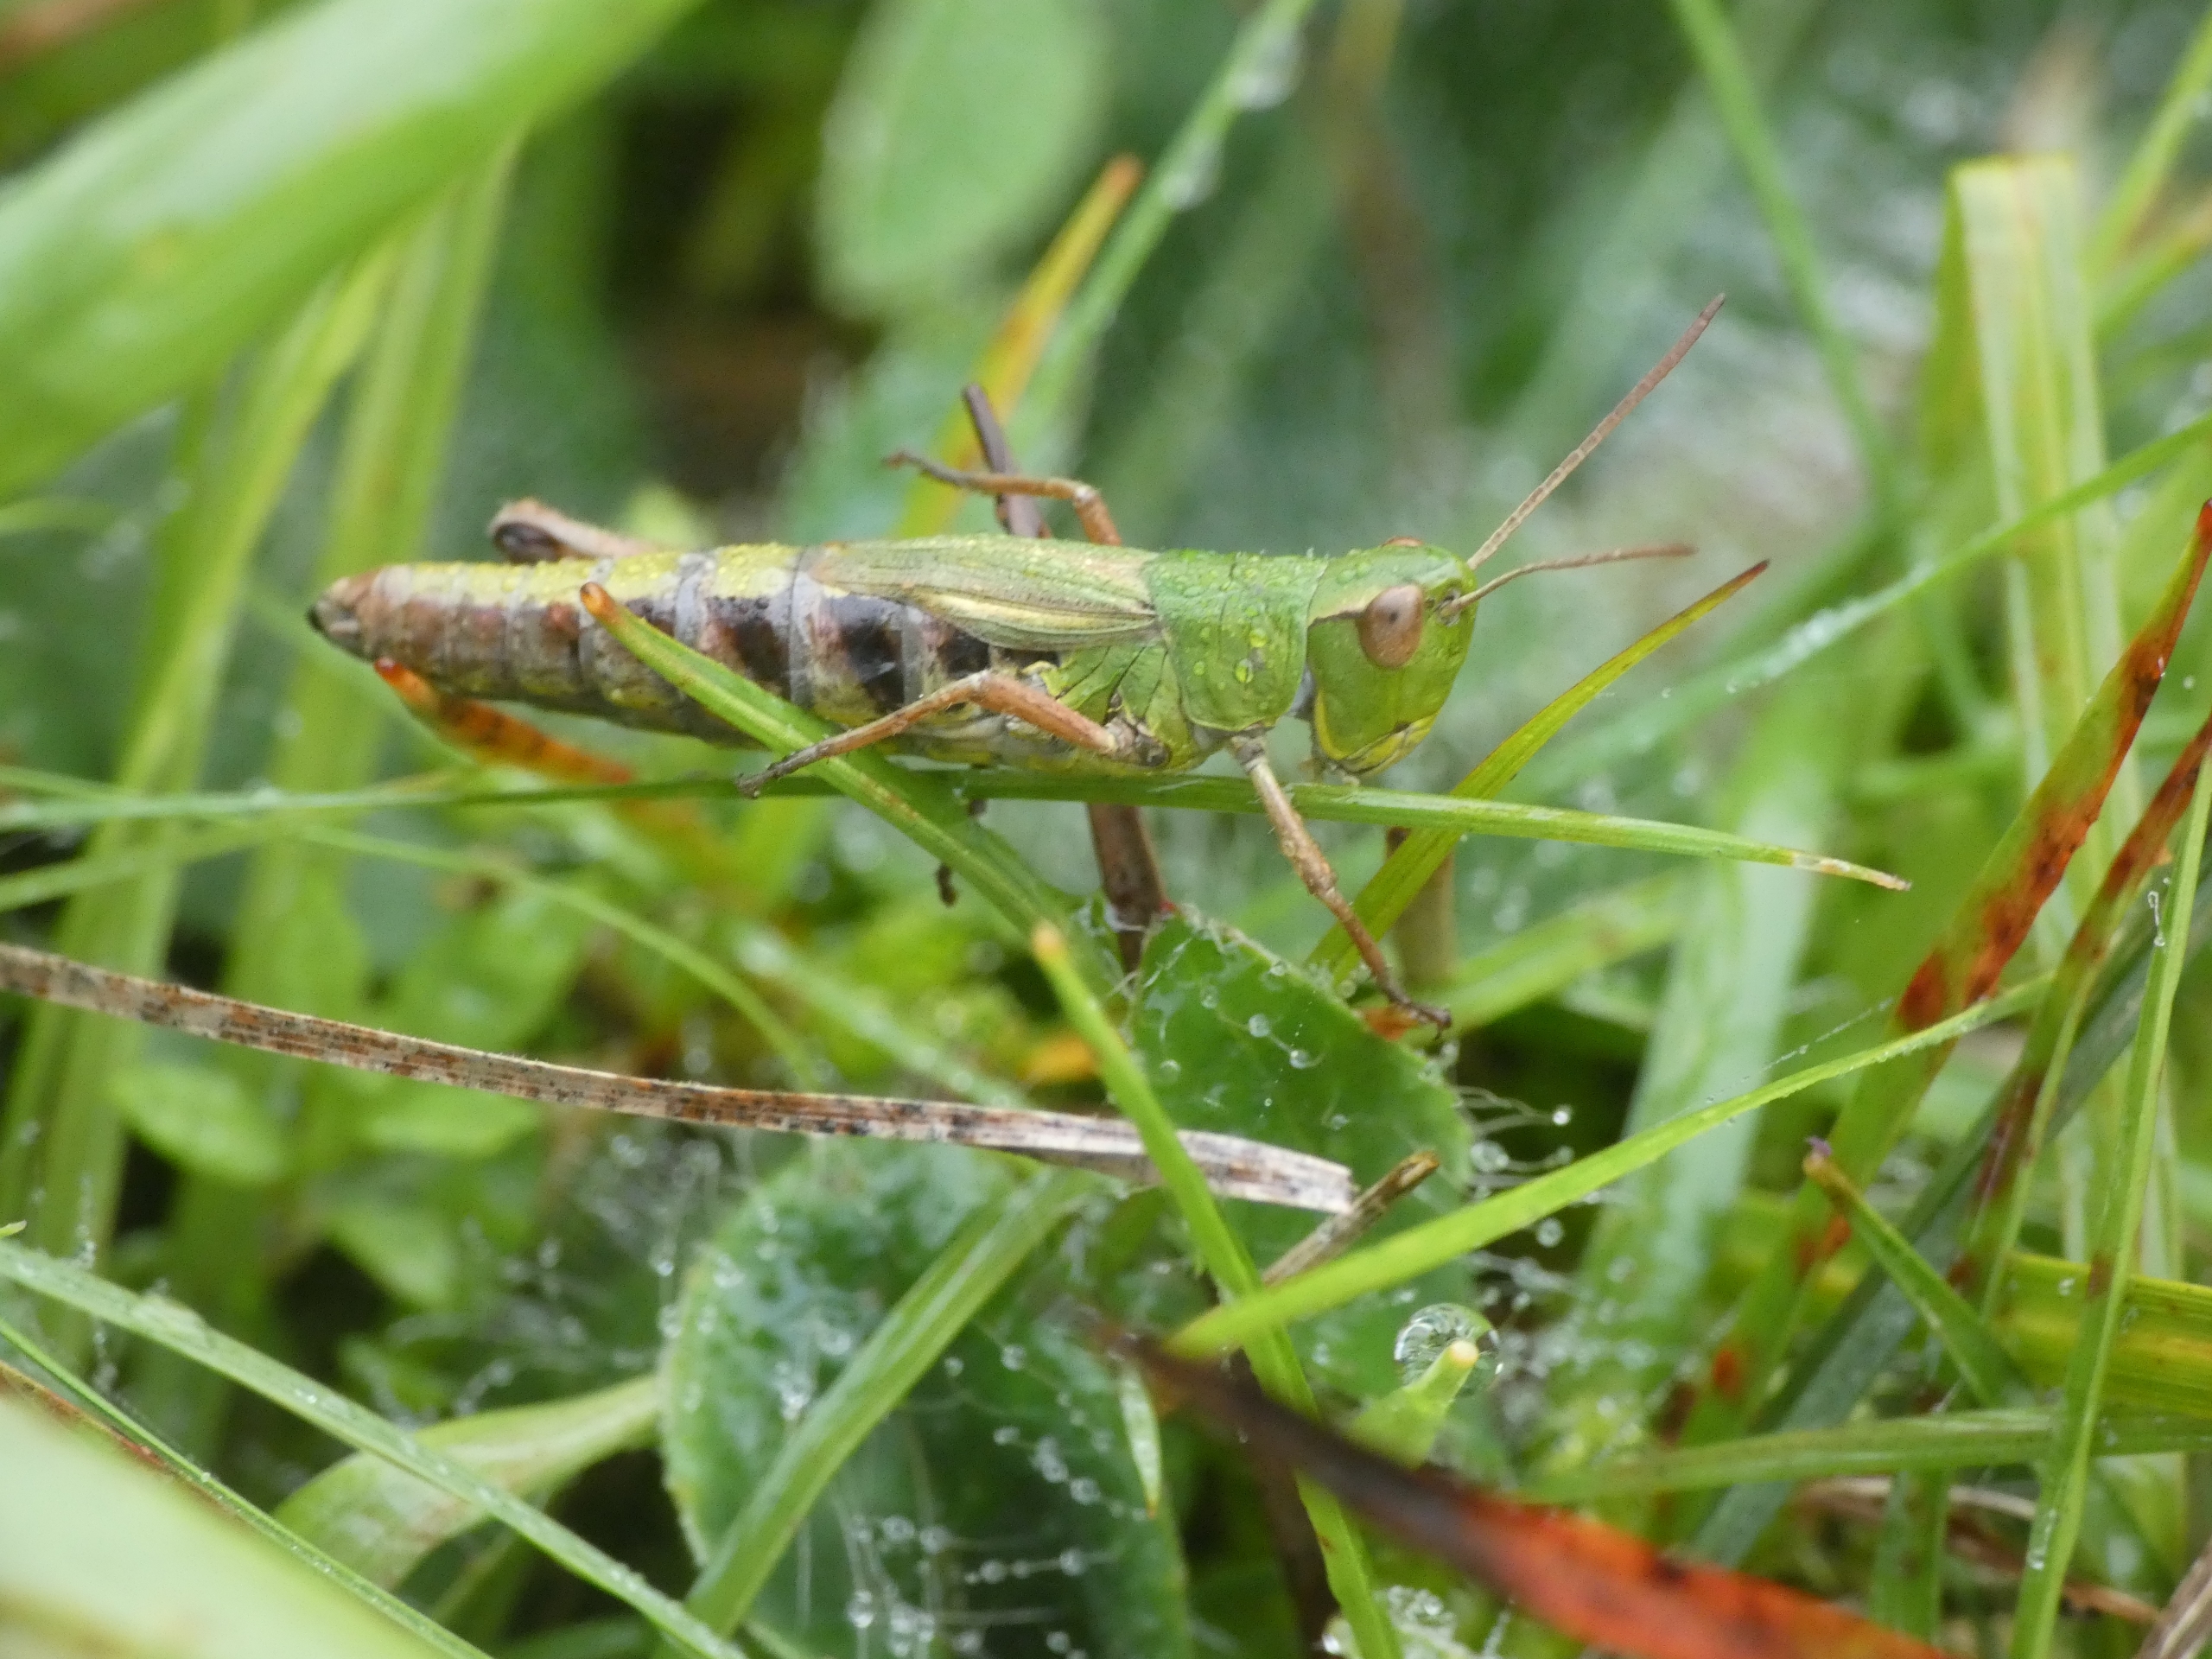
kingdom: Animalia
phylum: Arthropoda
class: Insecta
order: Orthoptera
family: Acrididae
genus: Pseudochorthippus
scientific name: Pseudochorthippus parallelus
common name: Enggræshoppe
